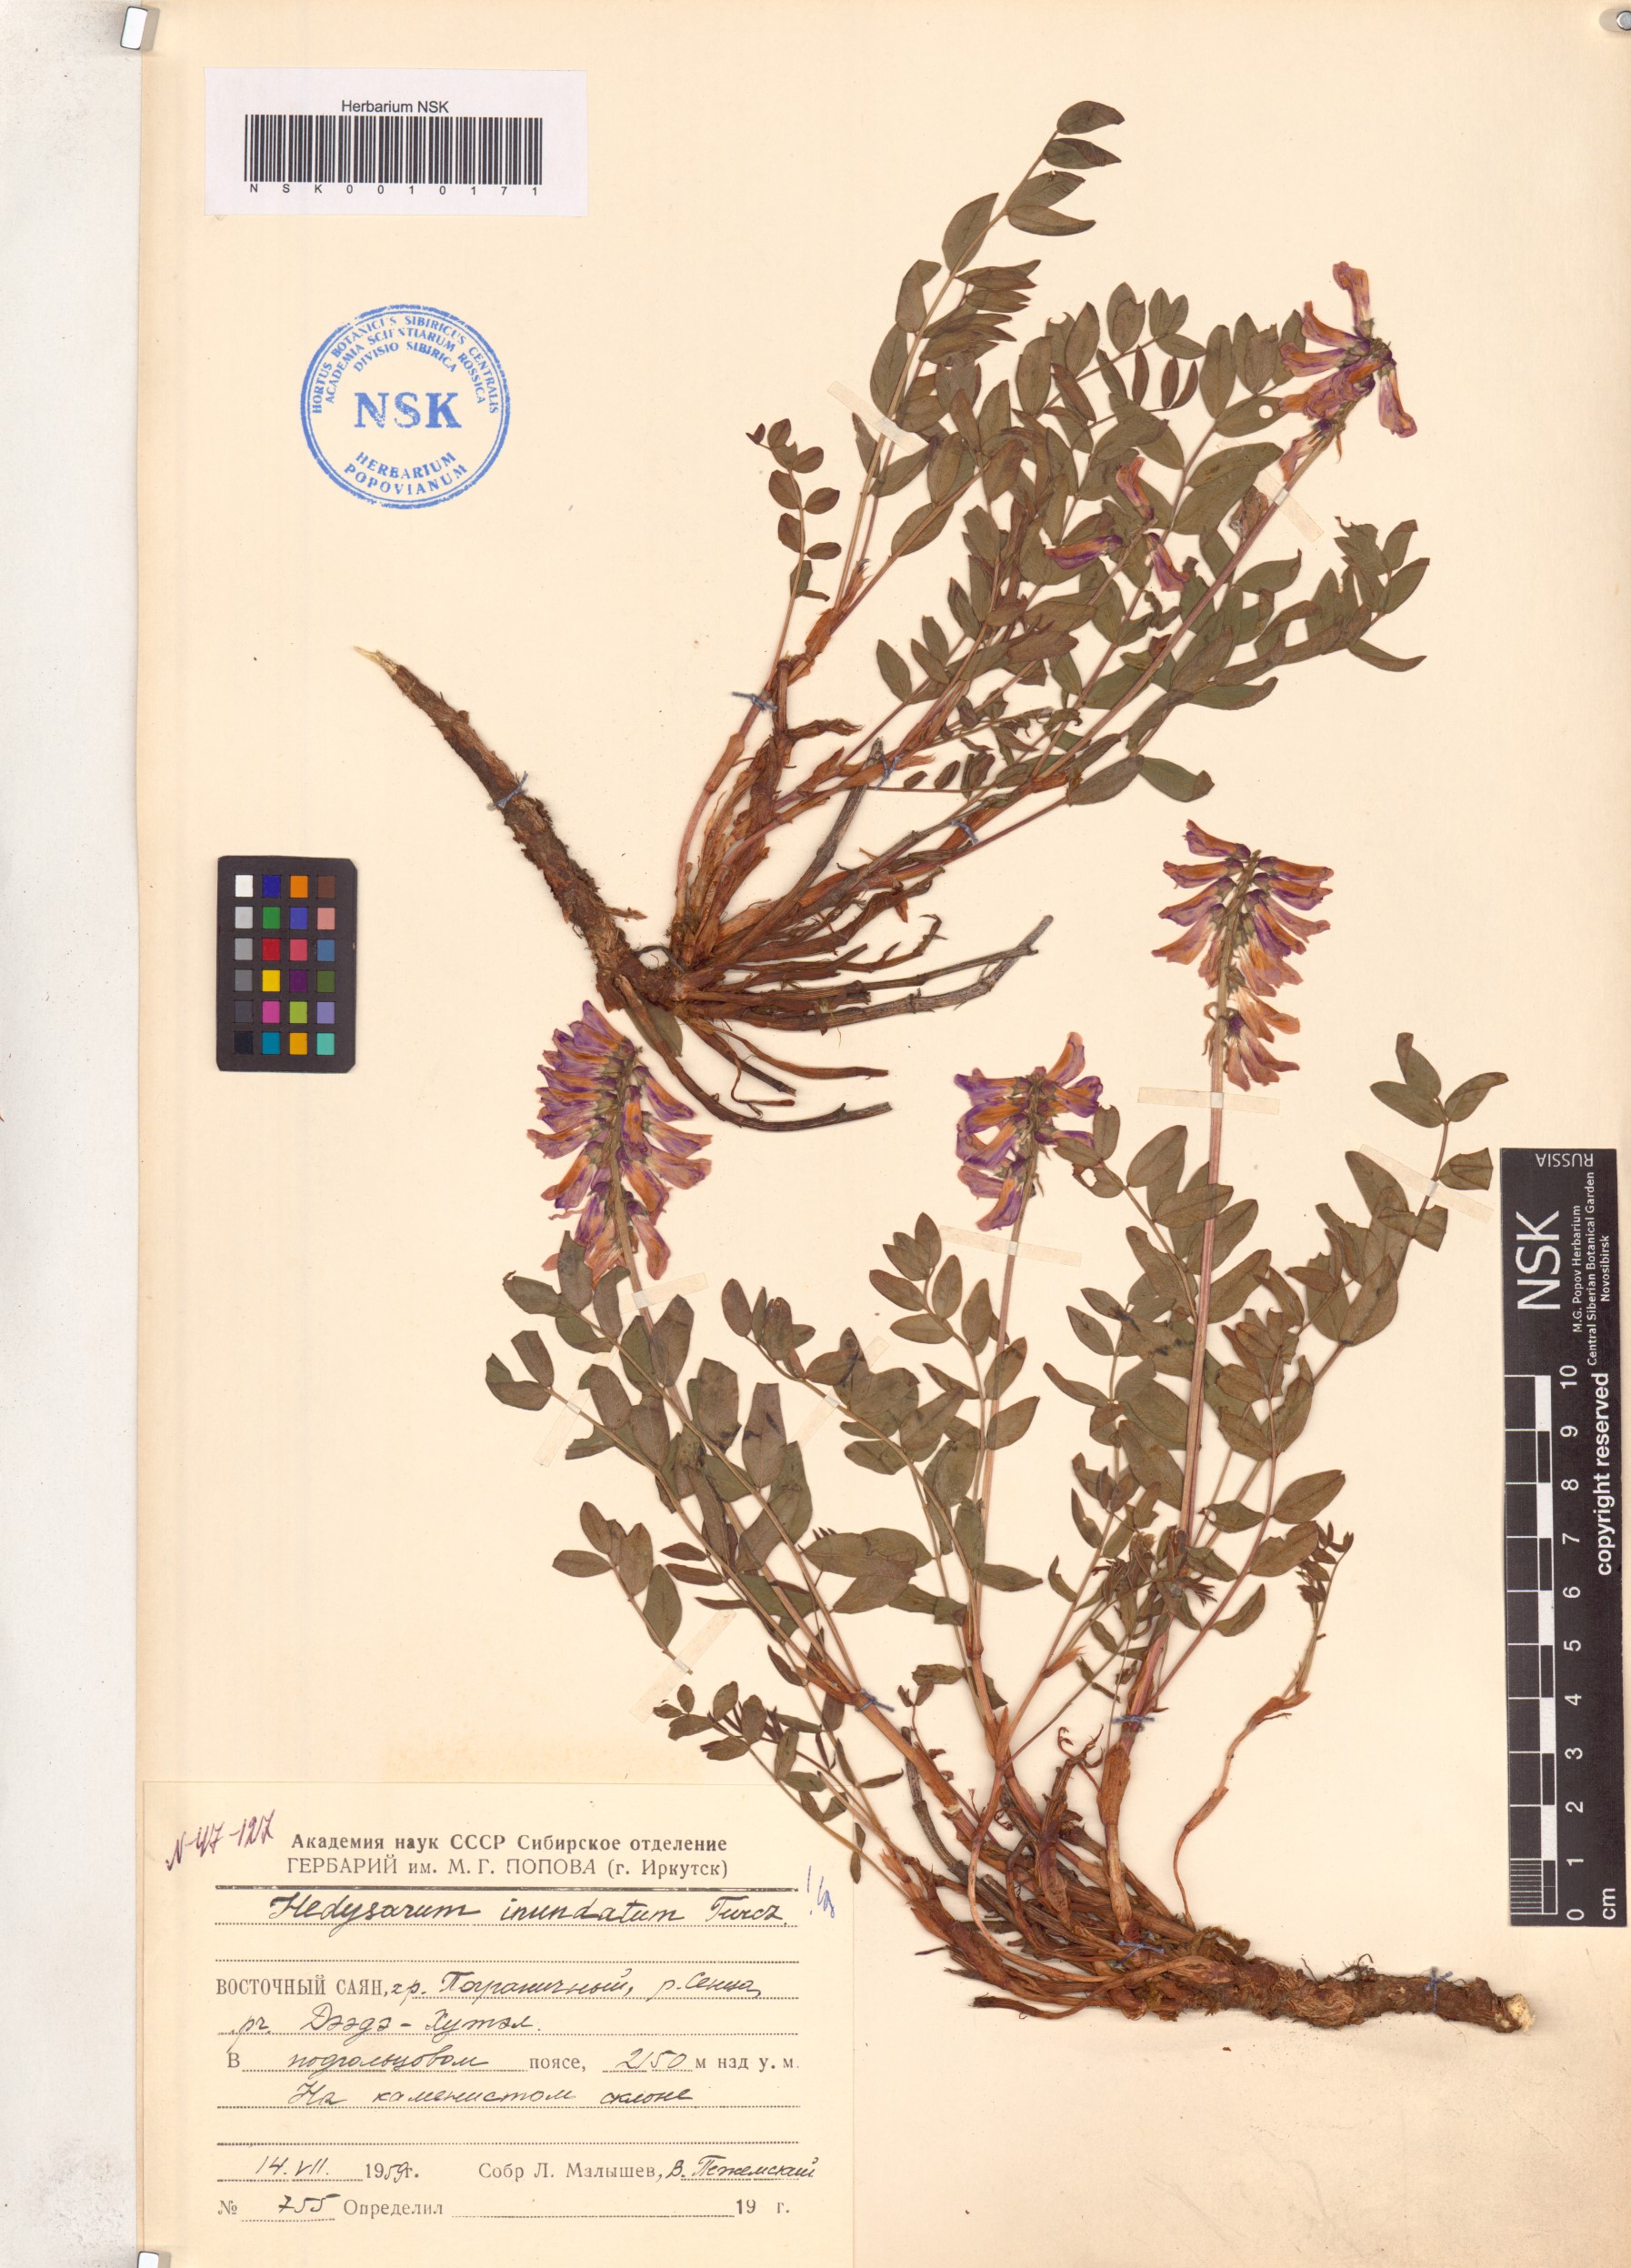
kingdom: Plantae
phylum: Tracheophyta
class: Magnoliopsida
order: Fabales
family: Fabaceae
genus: Hedysarum
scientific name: Hedysarum inundatum
